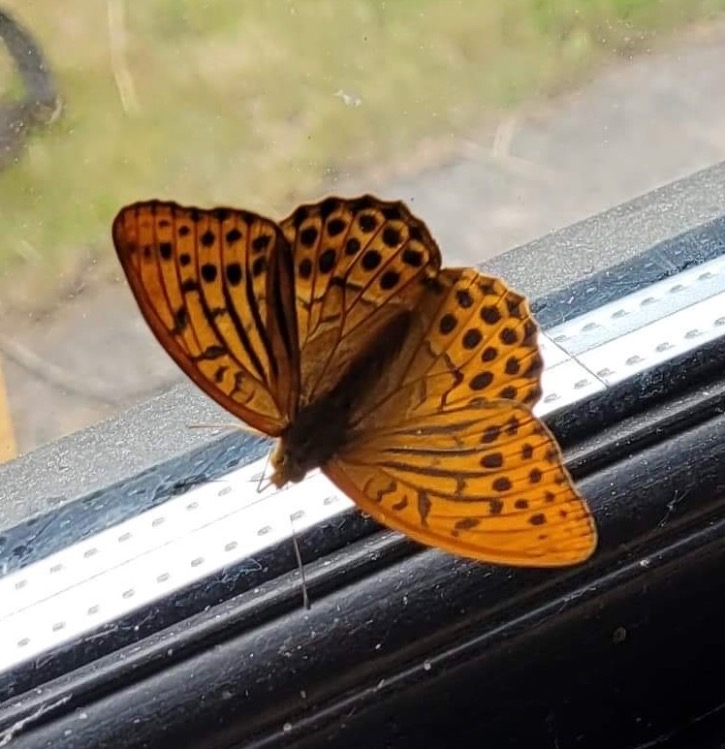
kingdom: Animalia
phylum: Arthropoda
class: Insecta
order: Lepidoptera
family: Nymphalidae
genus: Argynnis
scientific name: Argynnis paphia
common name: Kejserkåbe
